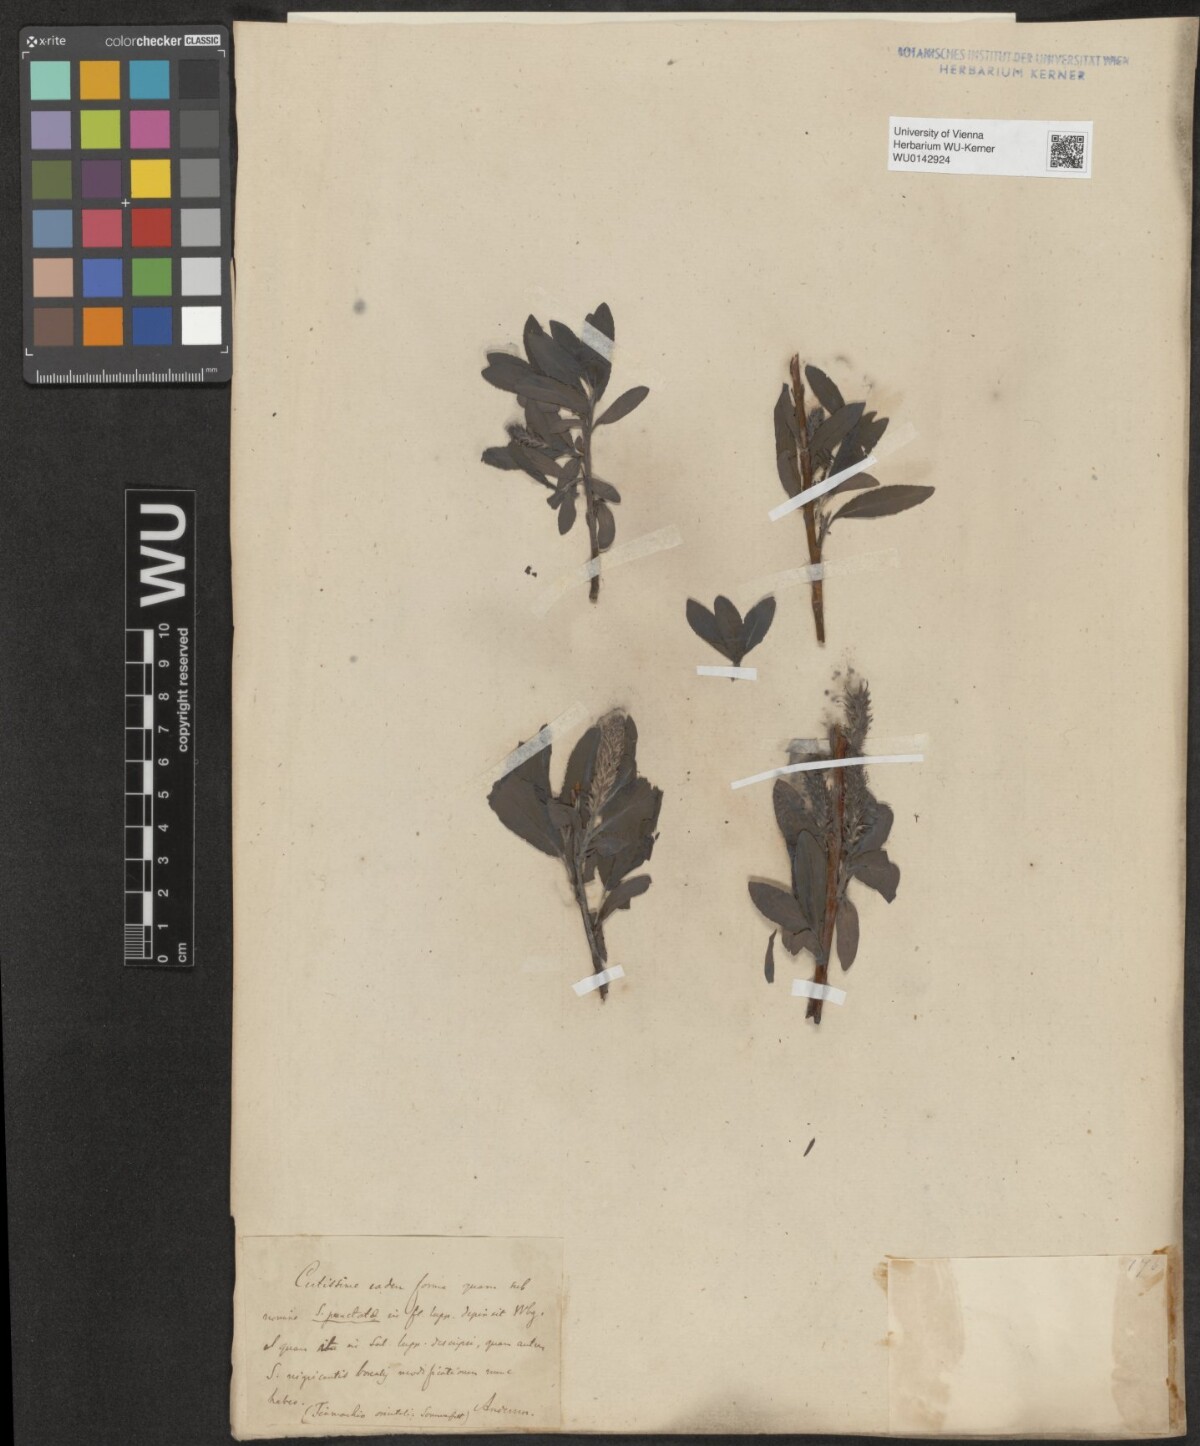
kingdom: Plantae
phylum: Tracheophyta
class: Magnoliopsida
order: Malpighiales
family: Salicaceae
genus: Salix
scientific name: Salix myrsinifolia
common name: Dark-leaved willow
